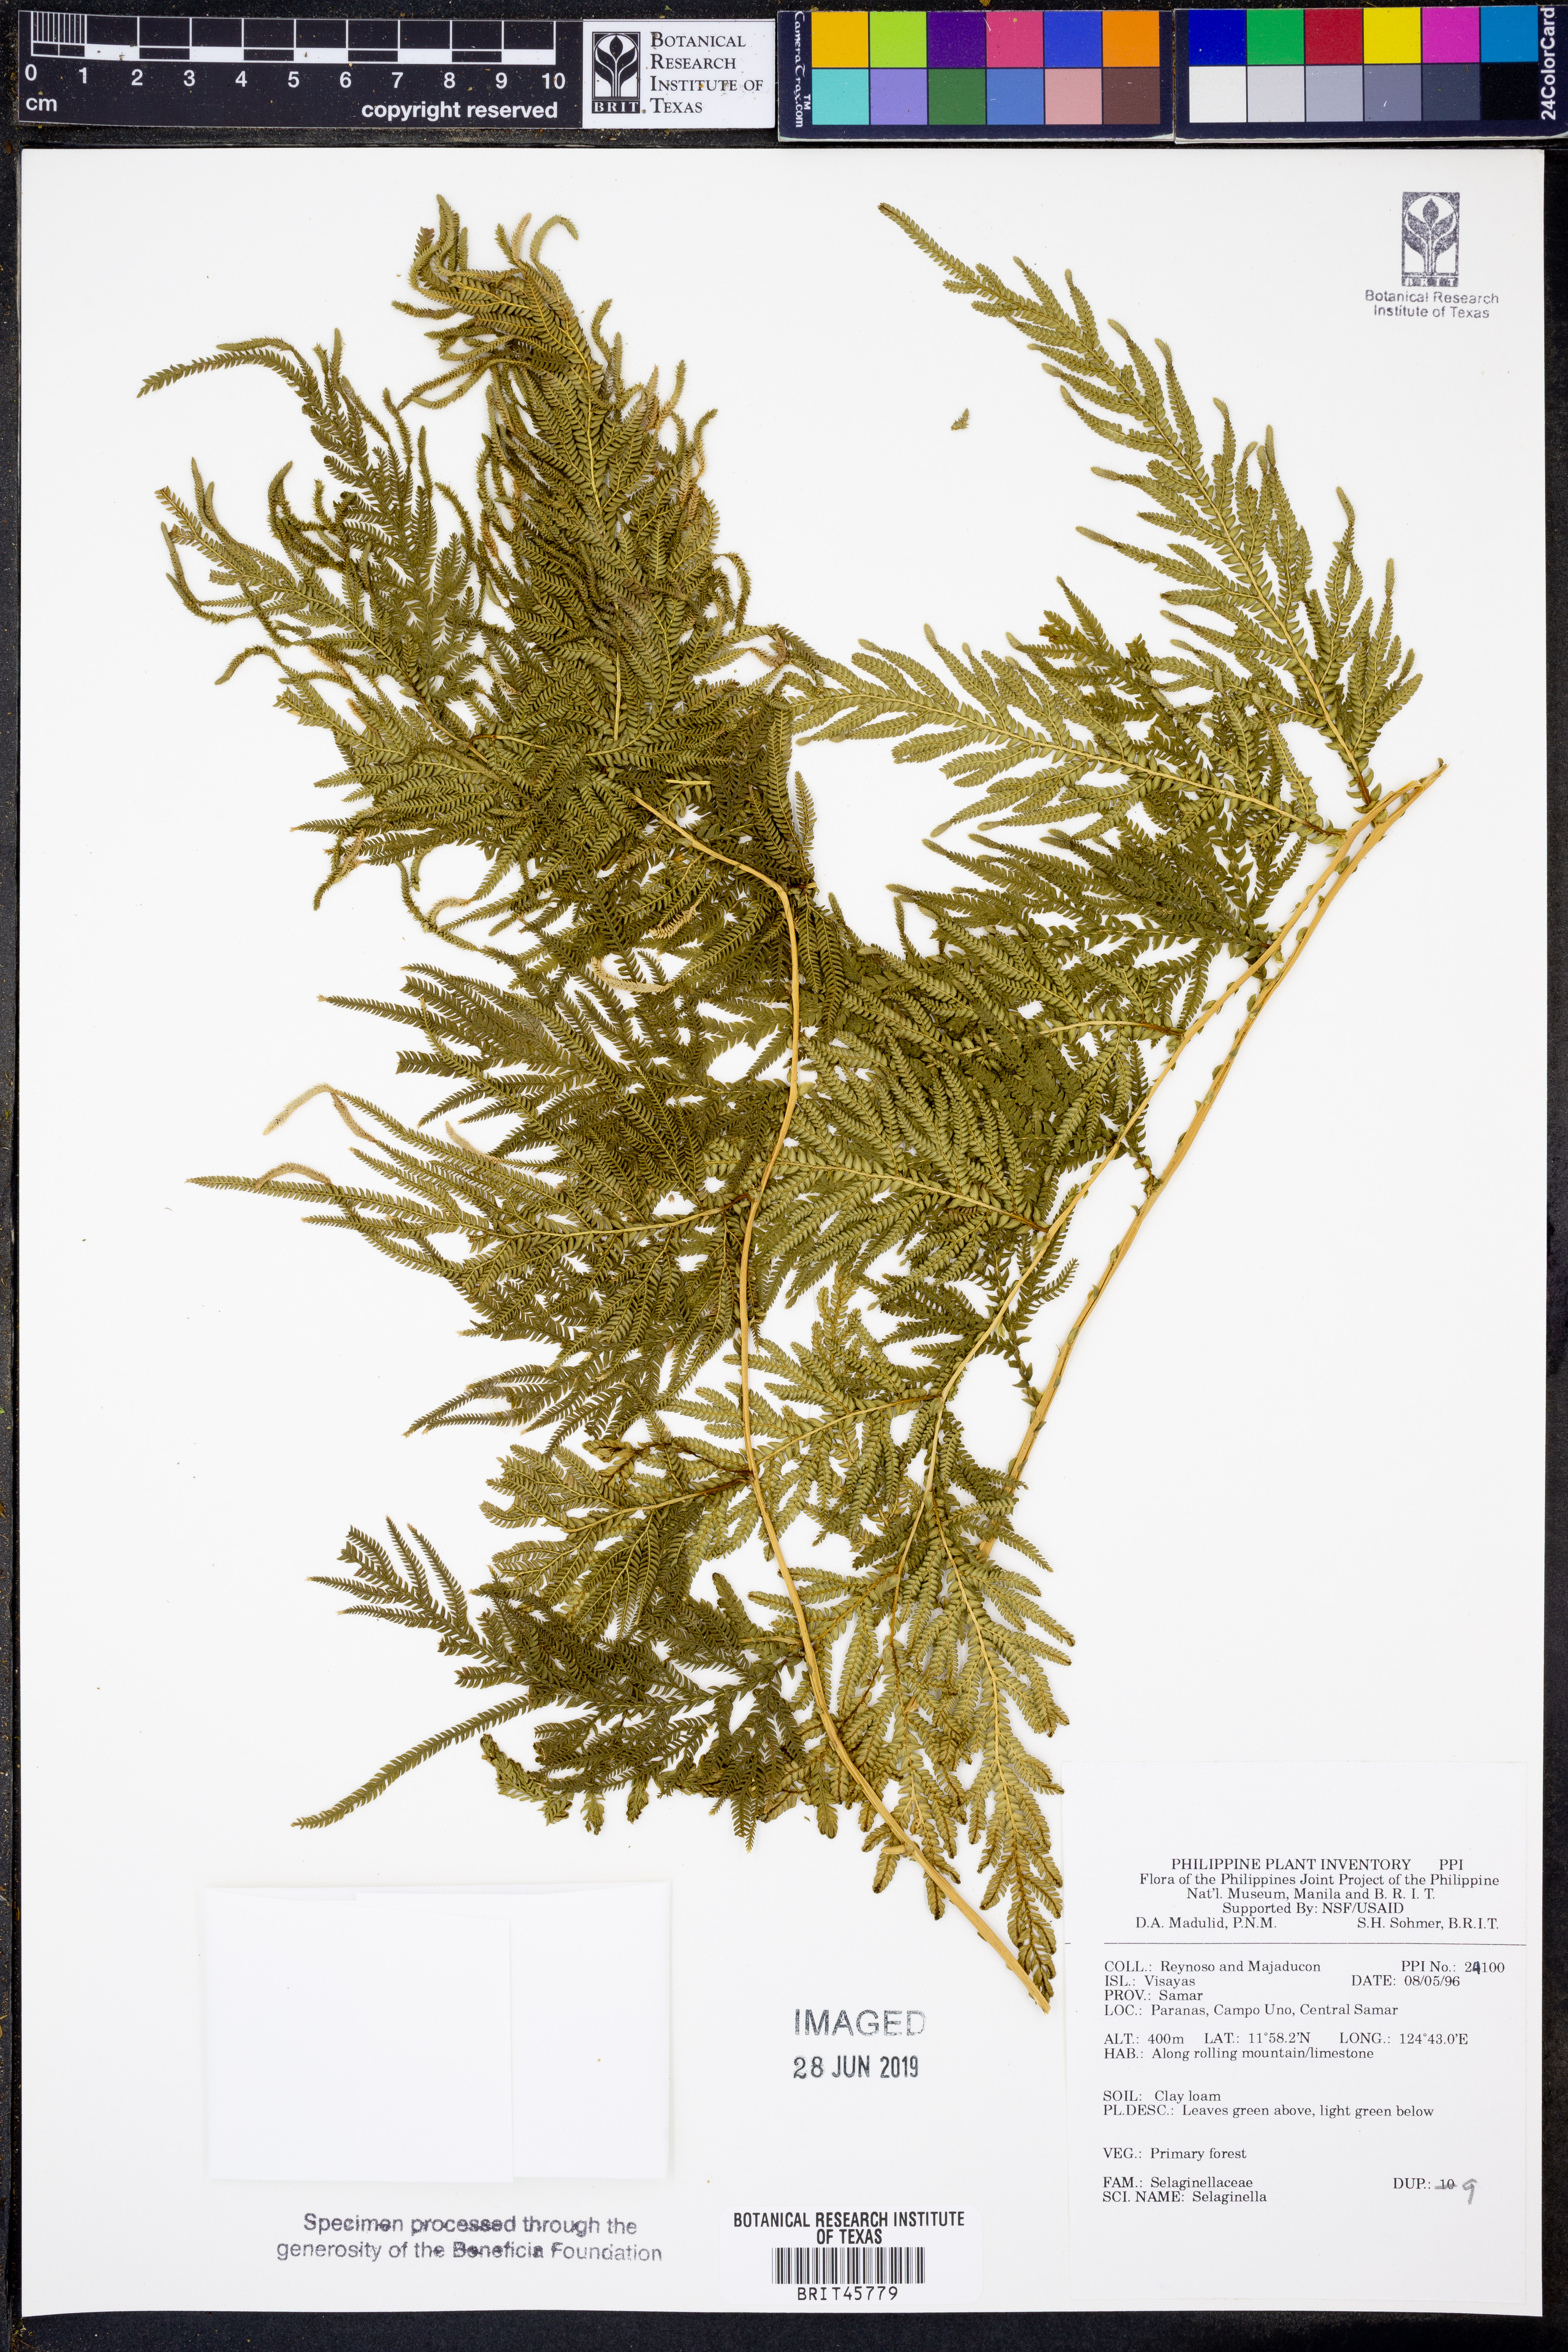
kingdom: Plantae
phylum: Tracheophyta
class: Lycopodiopsida
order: Selaginellales
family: Selaginellaceae
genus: Selaginella
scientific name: Selaginella
